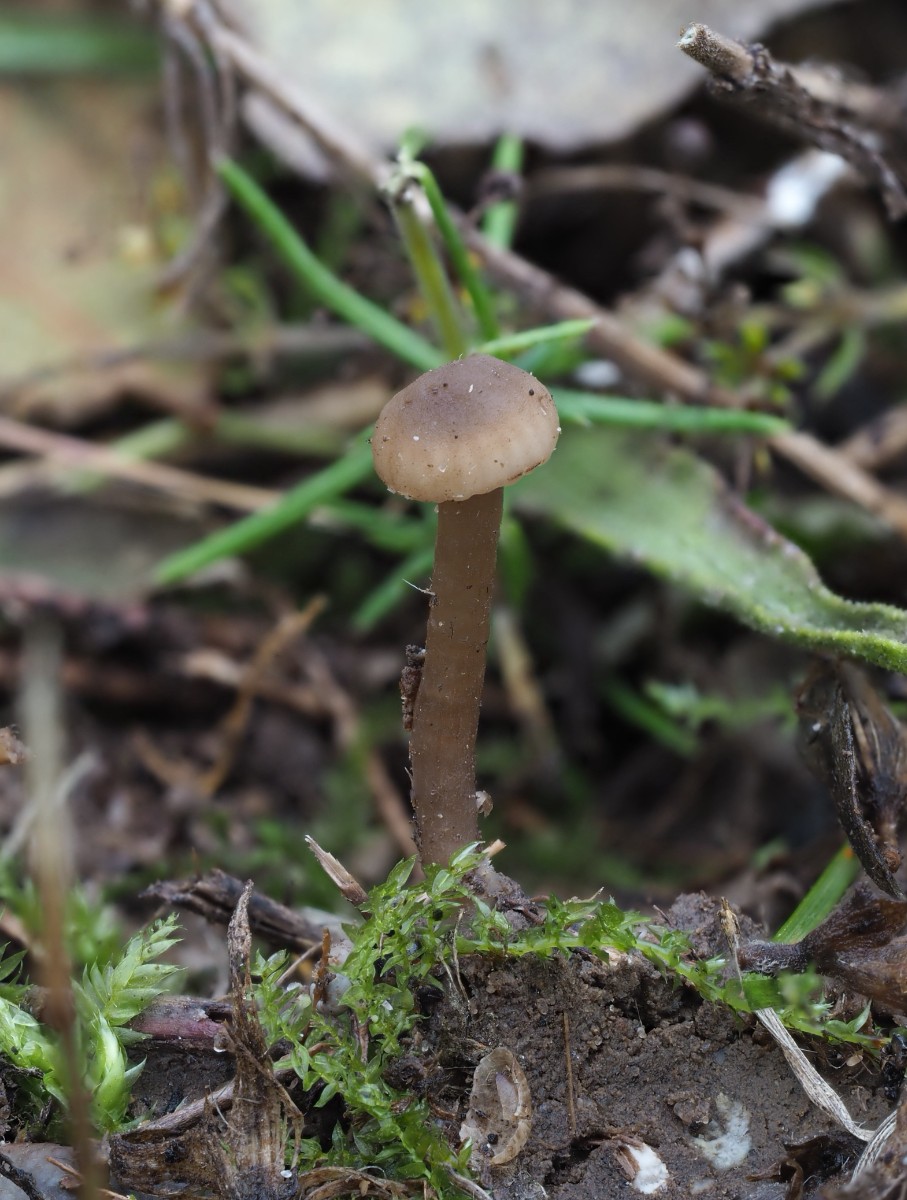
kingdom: Fungi
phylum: Basidiomycota
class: Agaricomycetes
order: Agaricales
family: Clavariaceae
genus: Hodophilus
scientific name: Hodophilus
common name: kratvokshat
